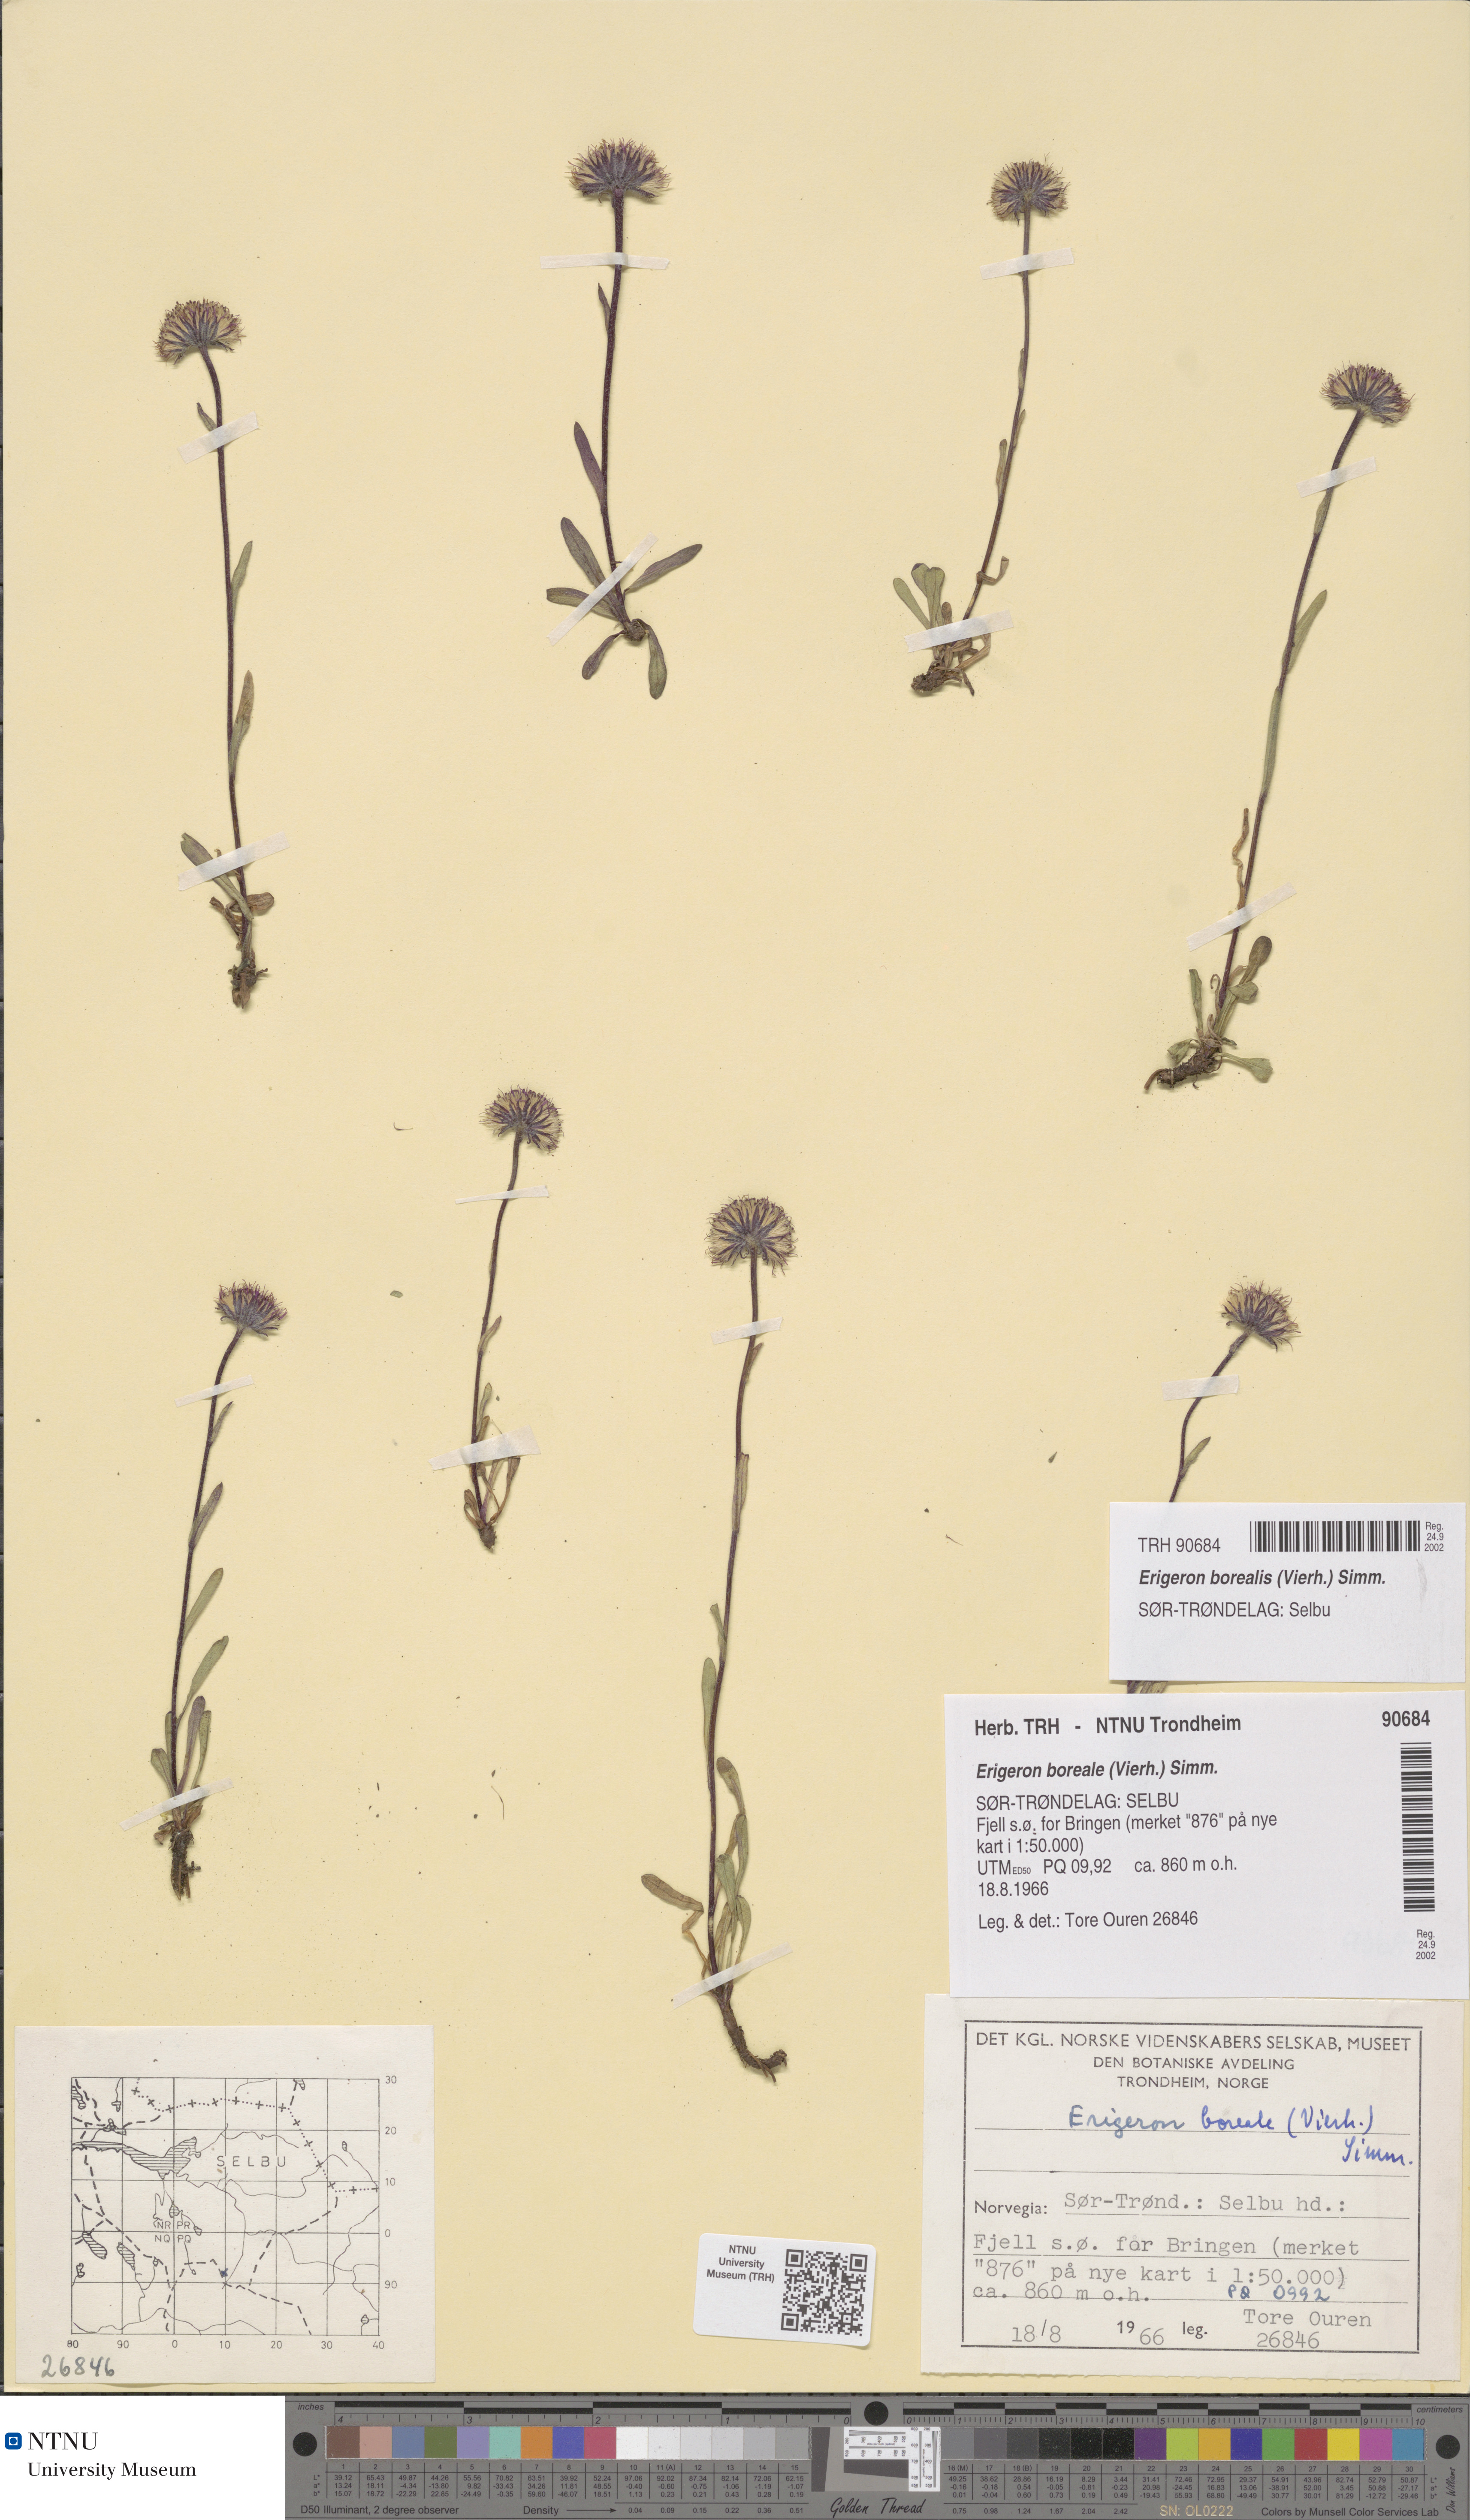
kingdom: Plantae
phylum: Tracheophyta
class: Magnoliopsida
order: Asterales
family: Asteraceae
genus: Erigeron
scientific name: Erigeron borealis
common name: Alpine fleabane
